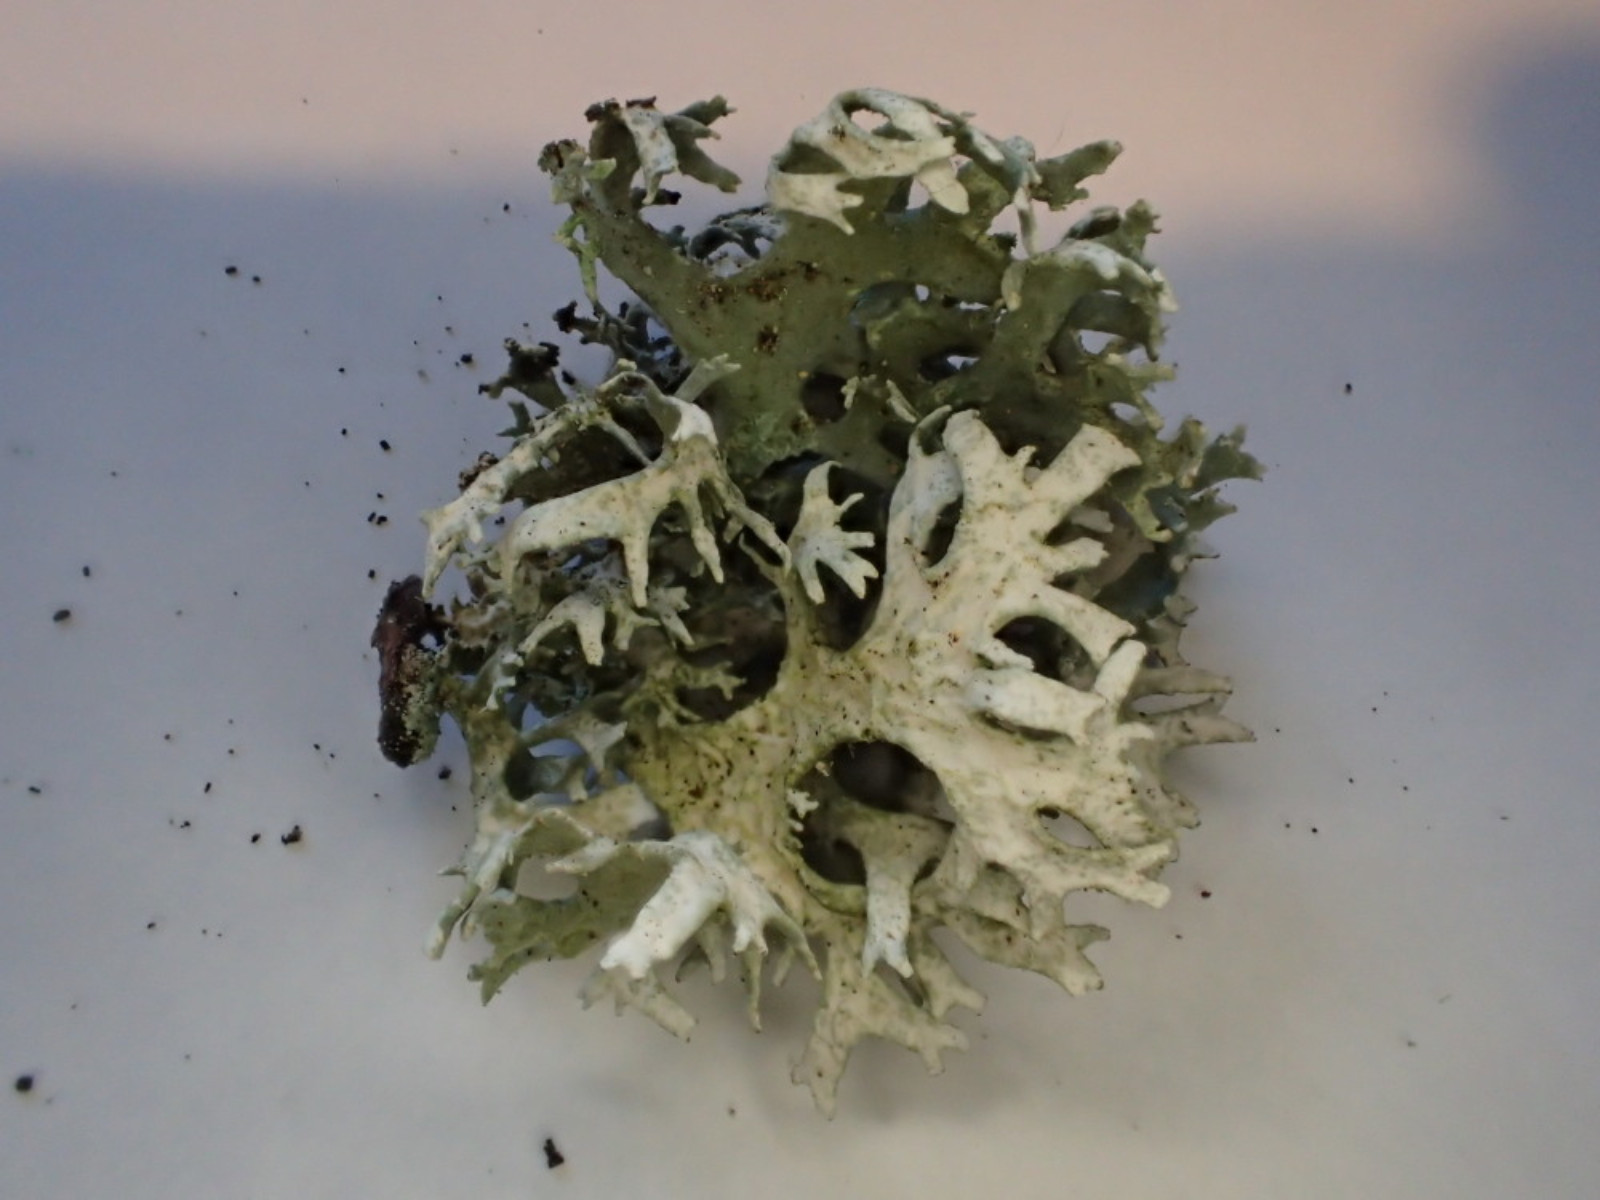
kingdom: Fungi
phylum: Ascomycota
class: Lecanoromycetes
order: Lecanorales
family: Parmeliaceae
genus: Evernia
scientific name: Evernia prunastri
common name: almindelig slåenlav
